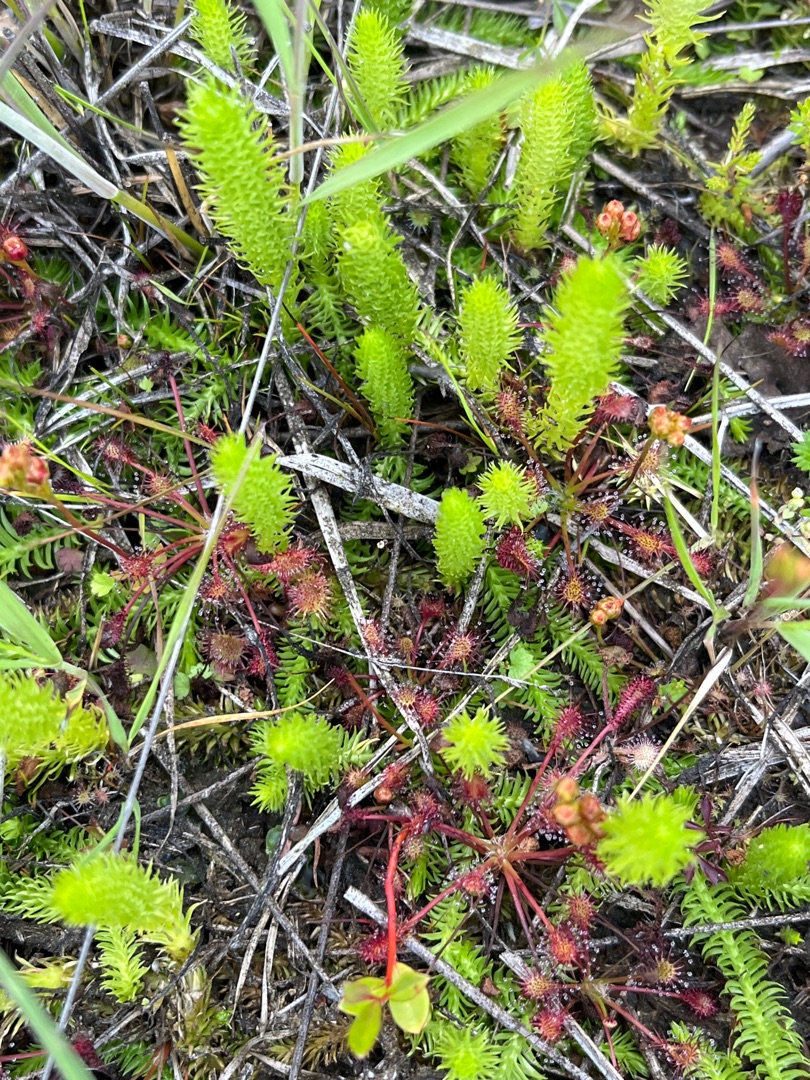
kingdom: Plantae
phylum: Tracheophyta
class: Lycopodiopsida
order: Lycopodiales
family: Lycopodiaceae
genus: Lycopodiella
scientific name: Lycopodiella inundata
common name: Liden ulvefod
